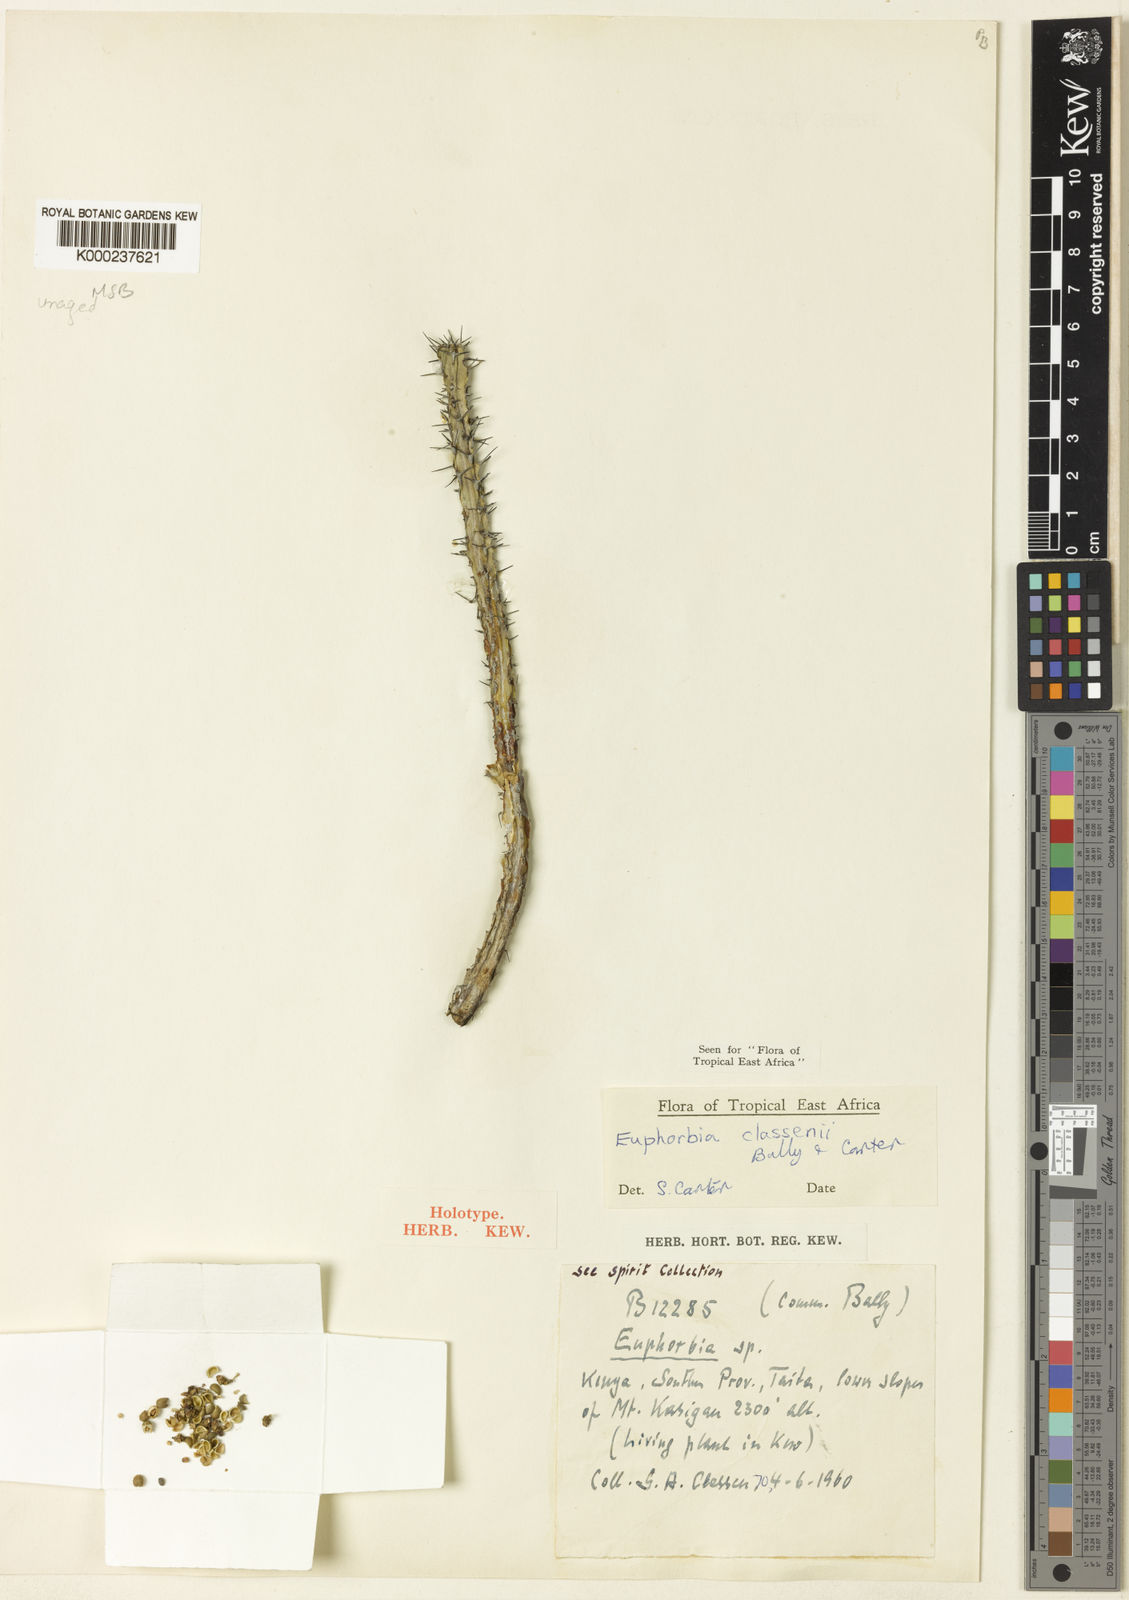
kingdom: Plantae
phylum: Tracheophyta
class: Magnoliopsida
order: Malpighiales
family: Euphorbiaceae
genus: Euphorbia
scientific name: Euphorbia classenii
